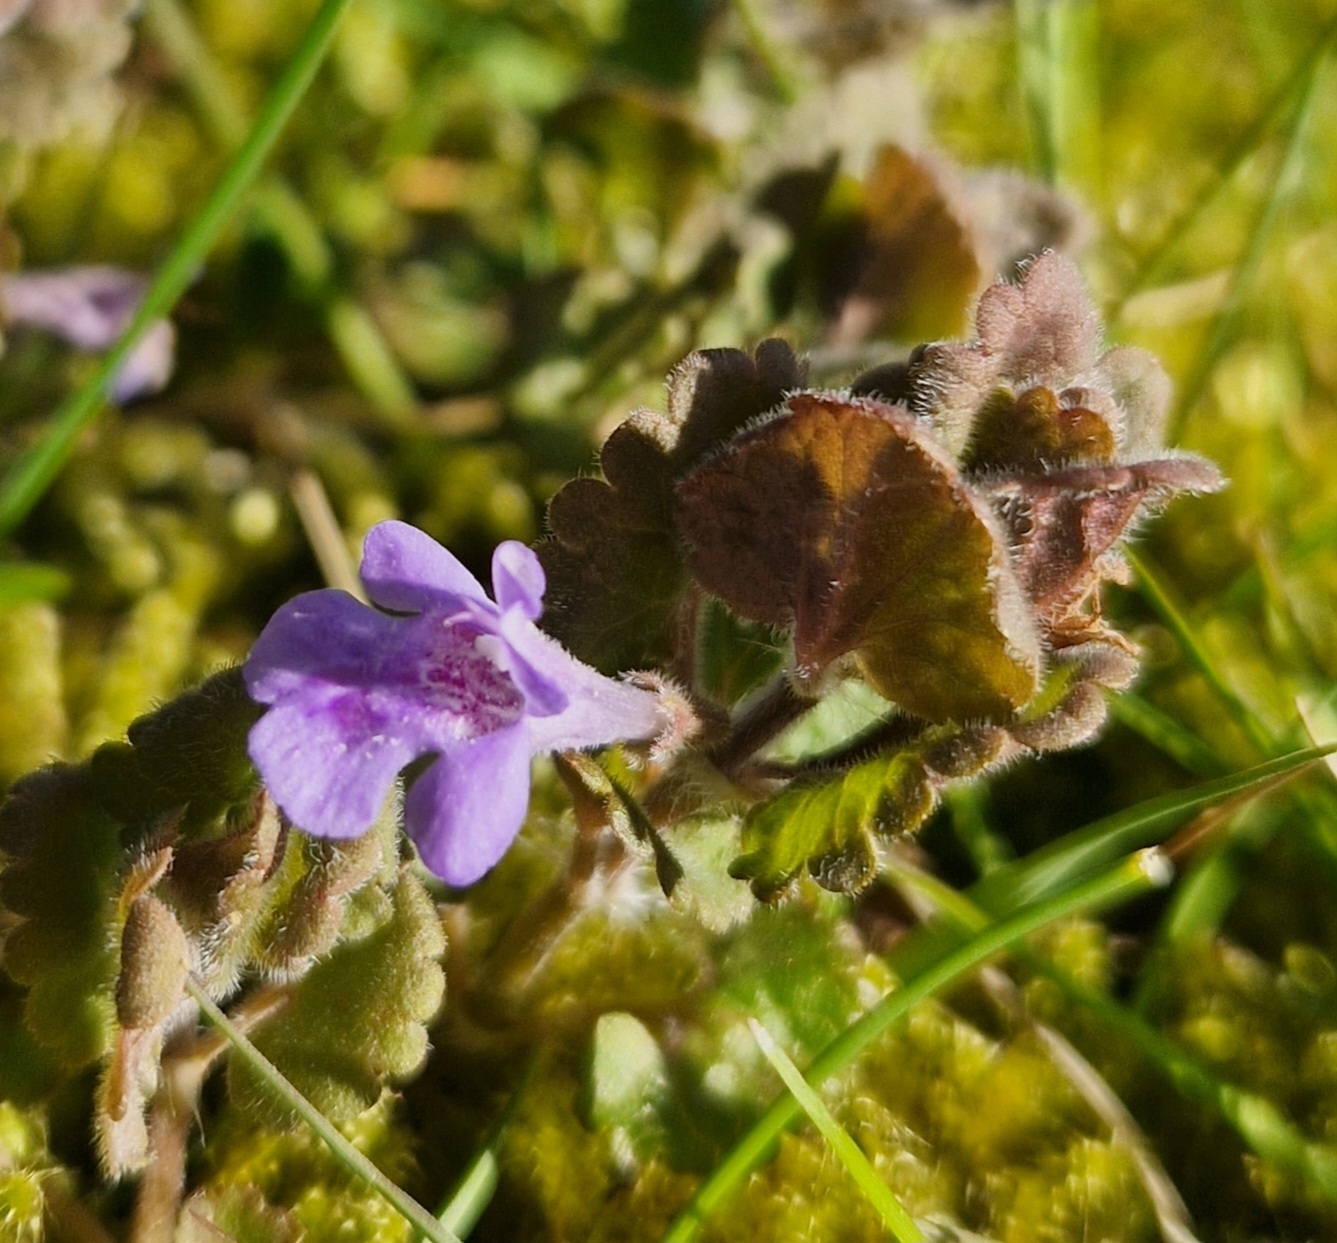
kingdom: Plantae
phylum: Tracheophyta
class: Magnoliopsida
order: Lamiales
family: Lamiaceae
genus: Glechoma
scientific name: Glechoma hederacea
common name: Korsknap
